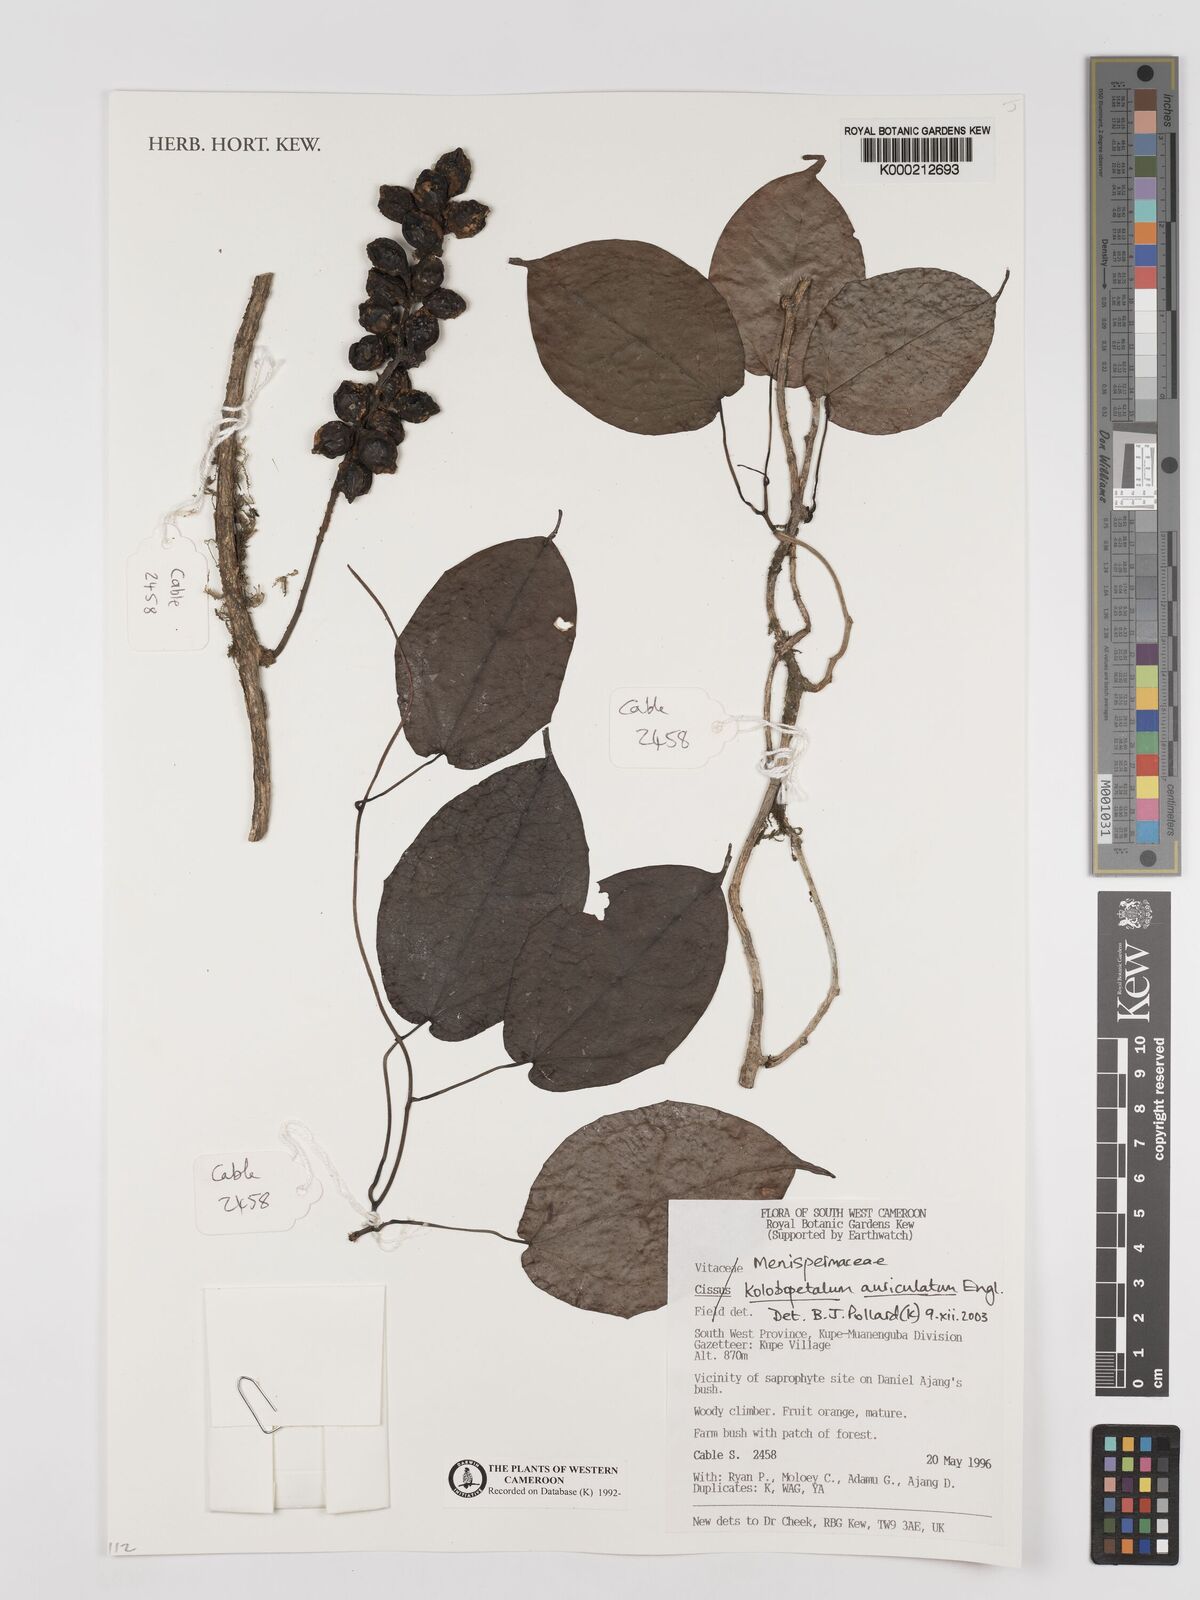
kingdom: Plantae
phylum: Tracheophyta
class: Magnoliopsida
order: Ranunculales
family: Menispermaceae
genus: Kolobopetalum
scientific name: Kolobopetalum auriculatum
